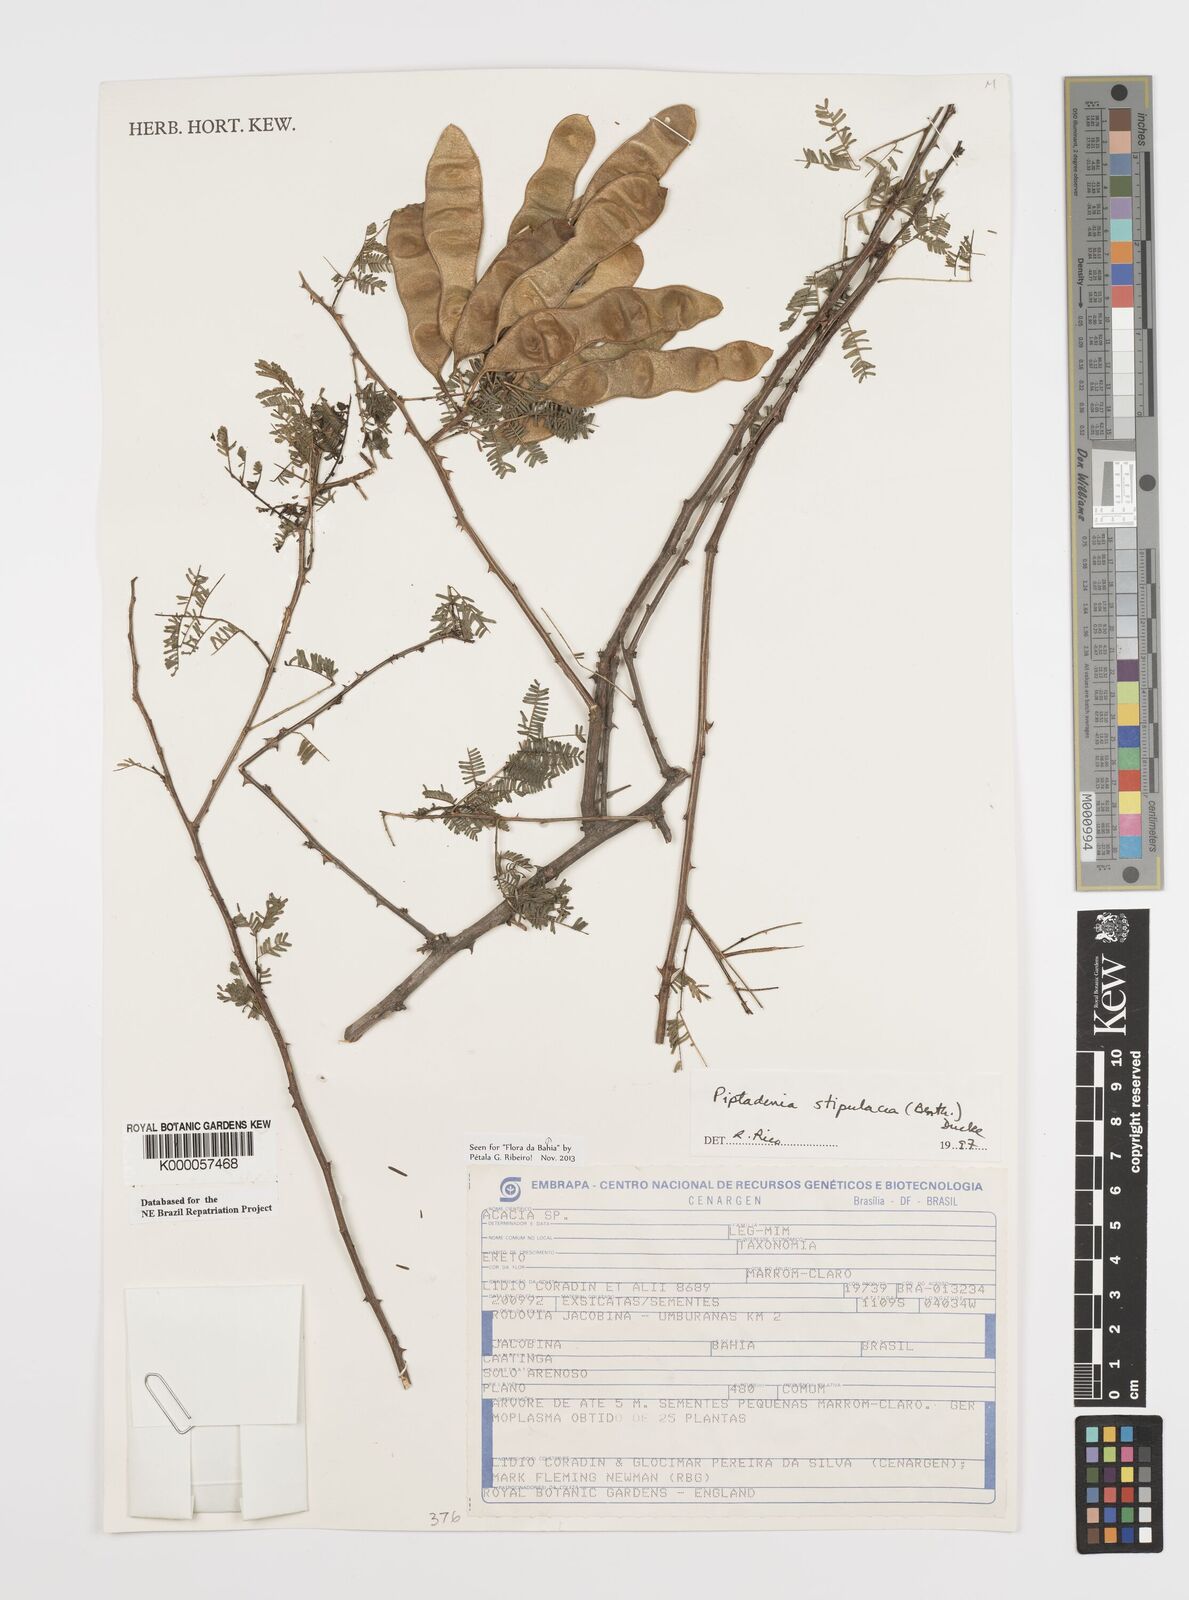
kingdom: Plantae
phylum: Tracheophyta
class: Magnoliopsida
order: Fabales
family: Fabaceae
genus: Piptadenia
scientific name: Piptadenia retusa
